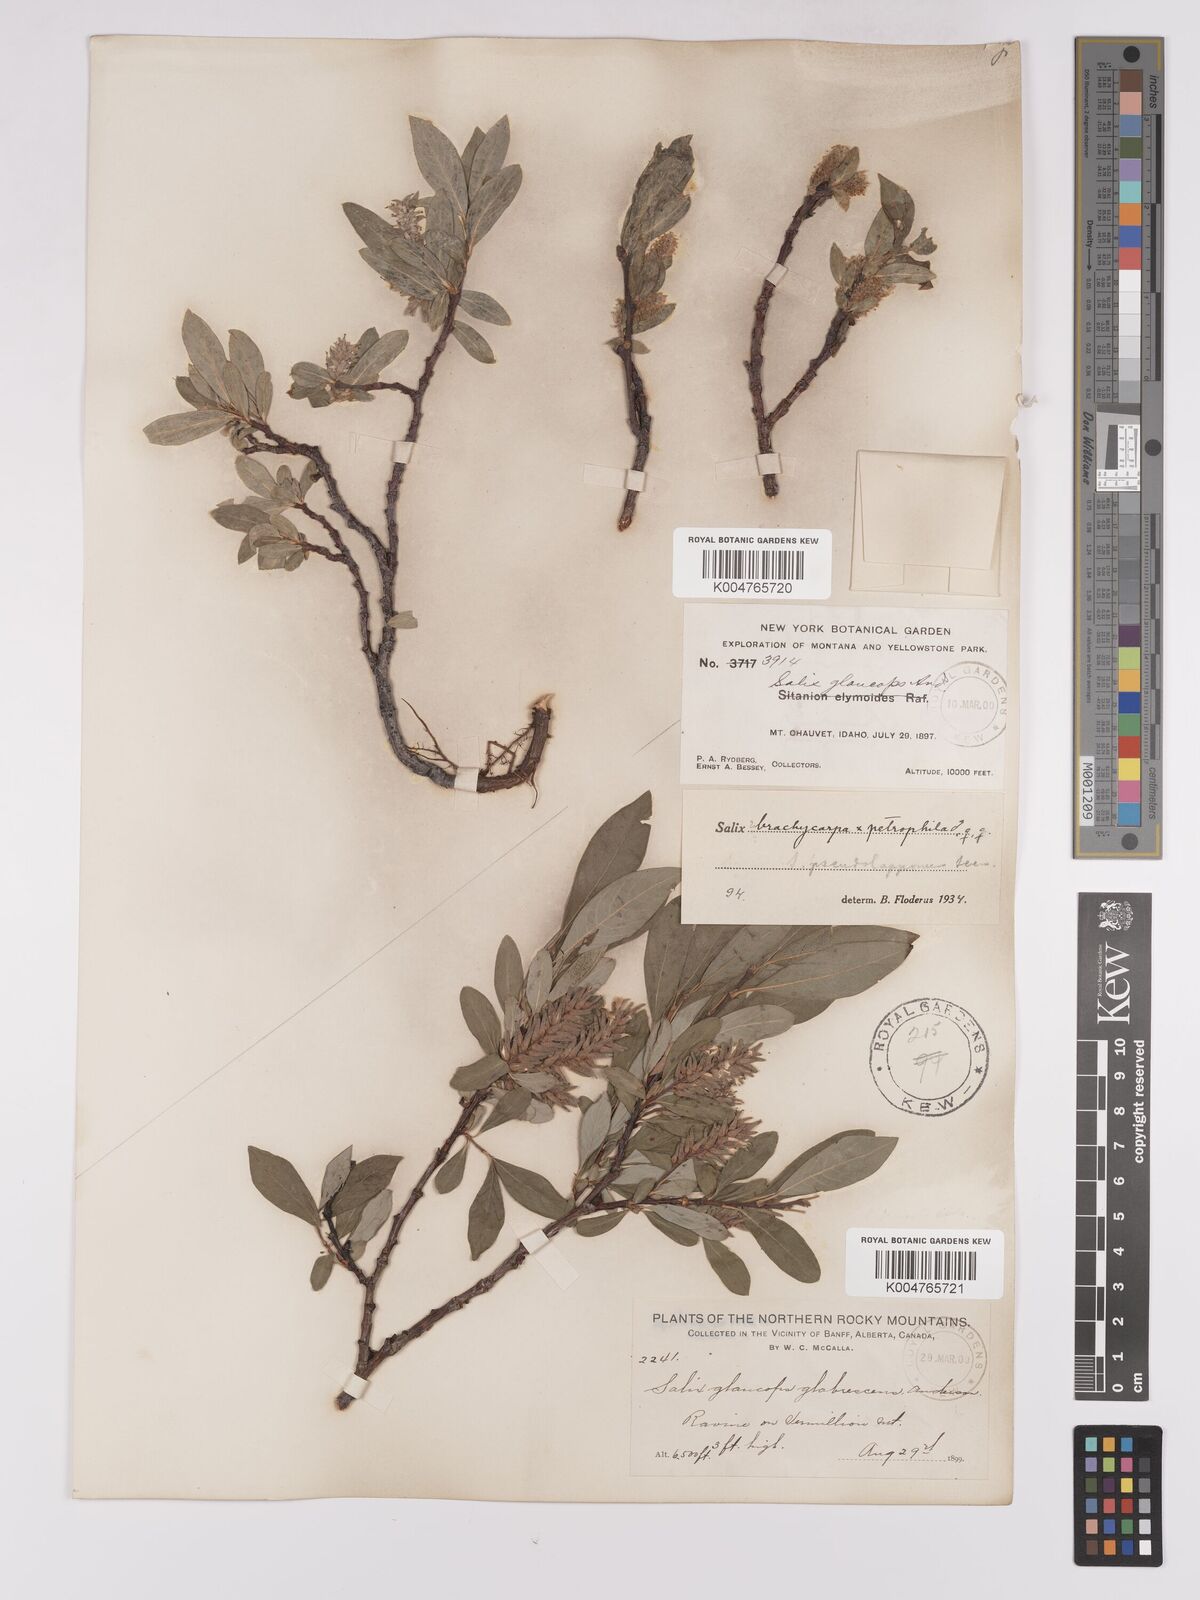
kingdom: Plantae
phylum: Tracheophyta
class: Magnoliopsida
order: Malpighiales
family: Salicaceae
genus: Salix
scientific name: Salix brachycarpa
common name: Barren-ground willow
